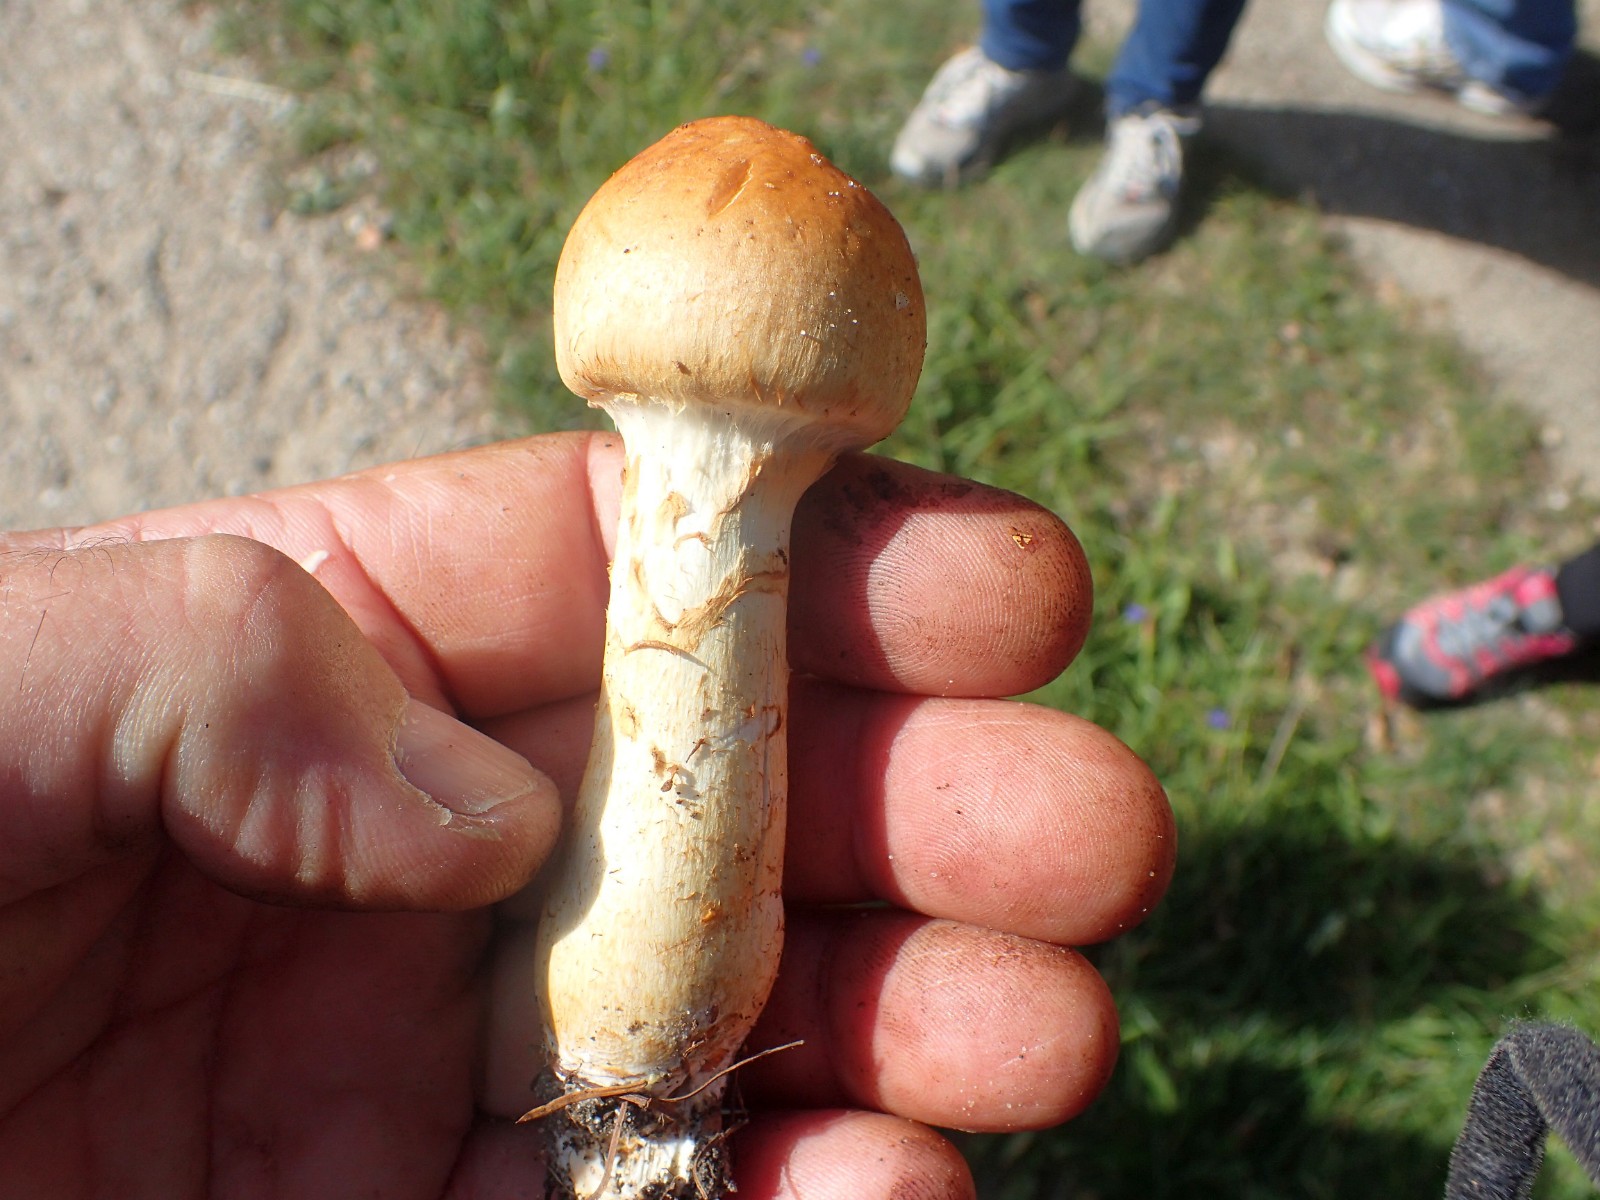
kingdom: Fungi
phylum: Basidiomycota
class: Agaricomycetes
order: Agaricales
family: Cortinariaceae
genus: Phlegmacium
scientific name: Phlegmacium triumphans
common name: gulbæltet slørhat
